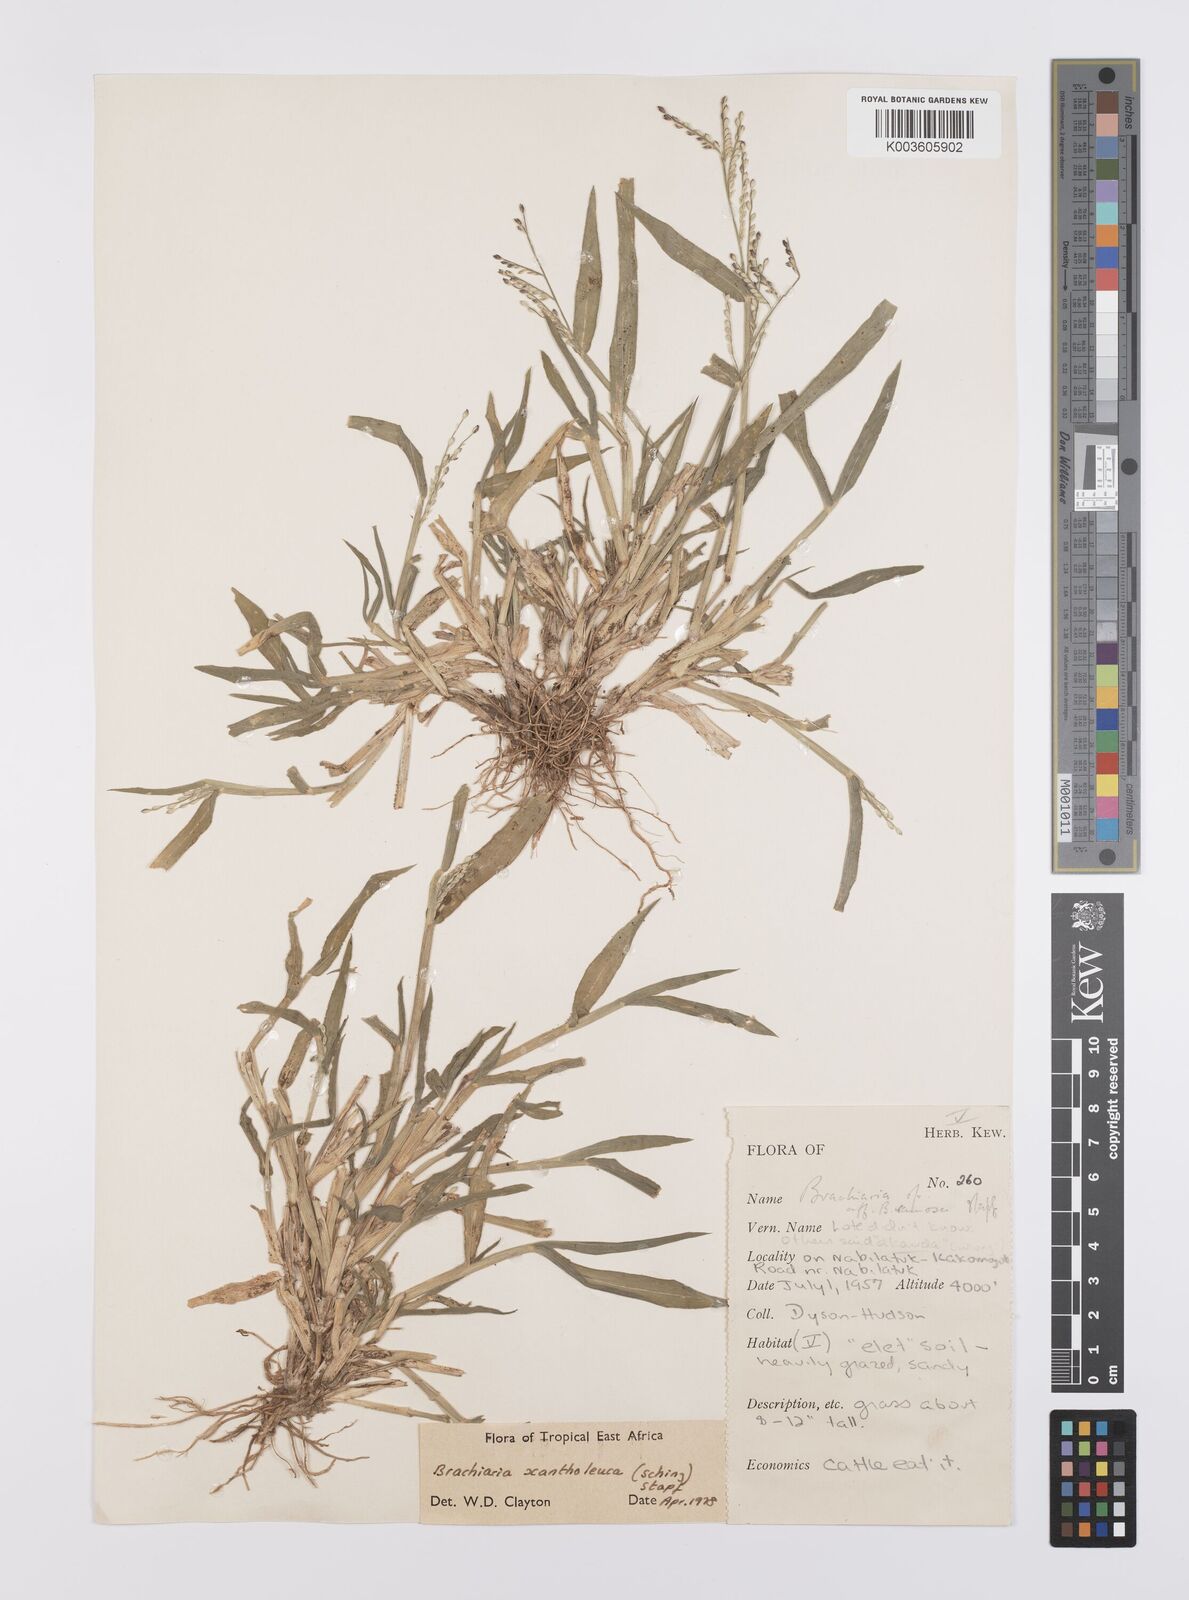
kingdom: Plantae
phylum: Tracheophyta
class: Liliopsida
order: Poales
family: Poaceae
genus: Urochloa
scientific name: Urochloa xantholeuca
